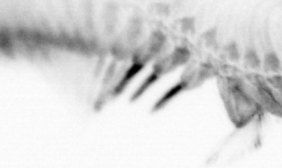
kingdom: Animalia
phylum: Annelida
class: Polychaeta
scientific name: Polychaeta
